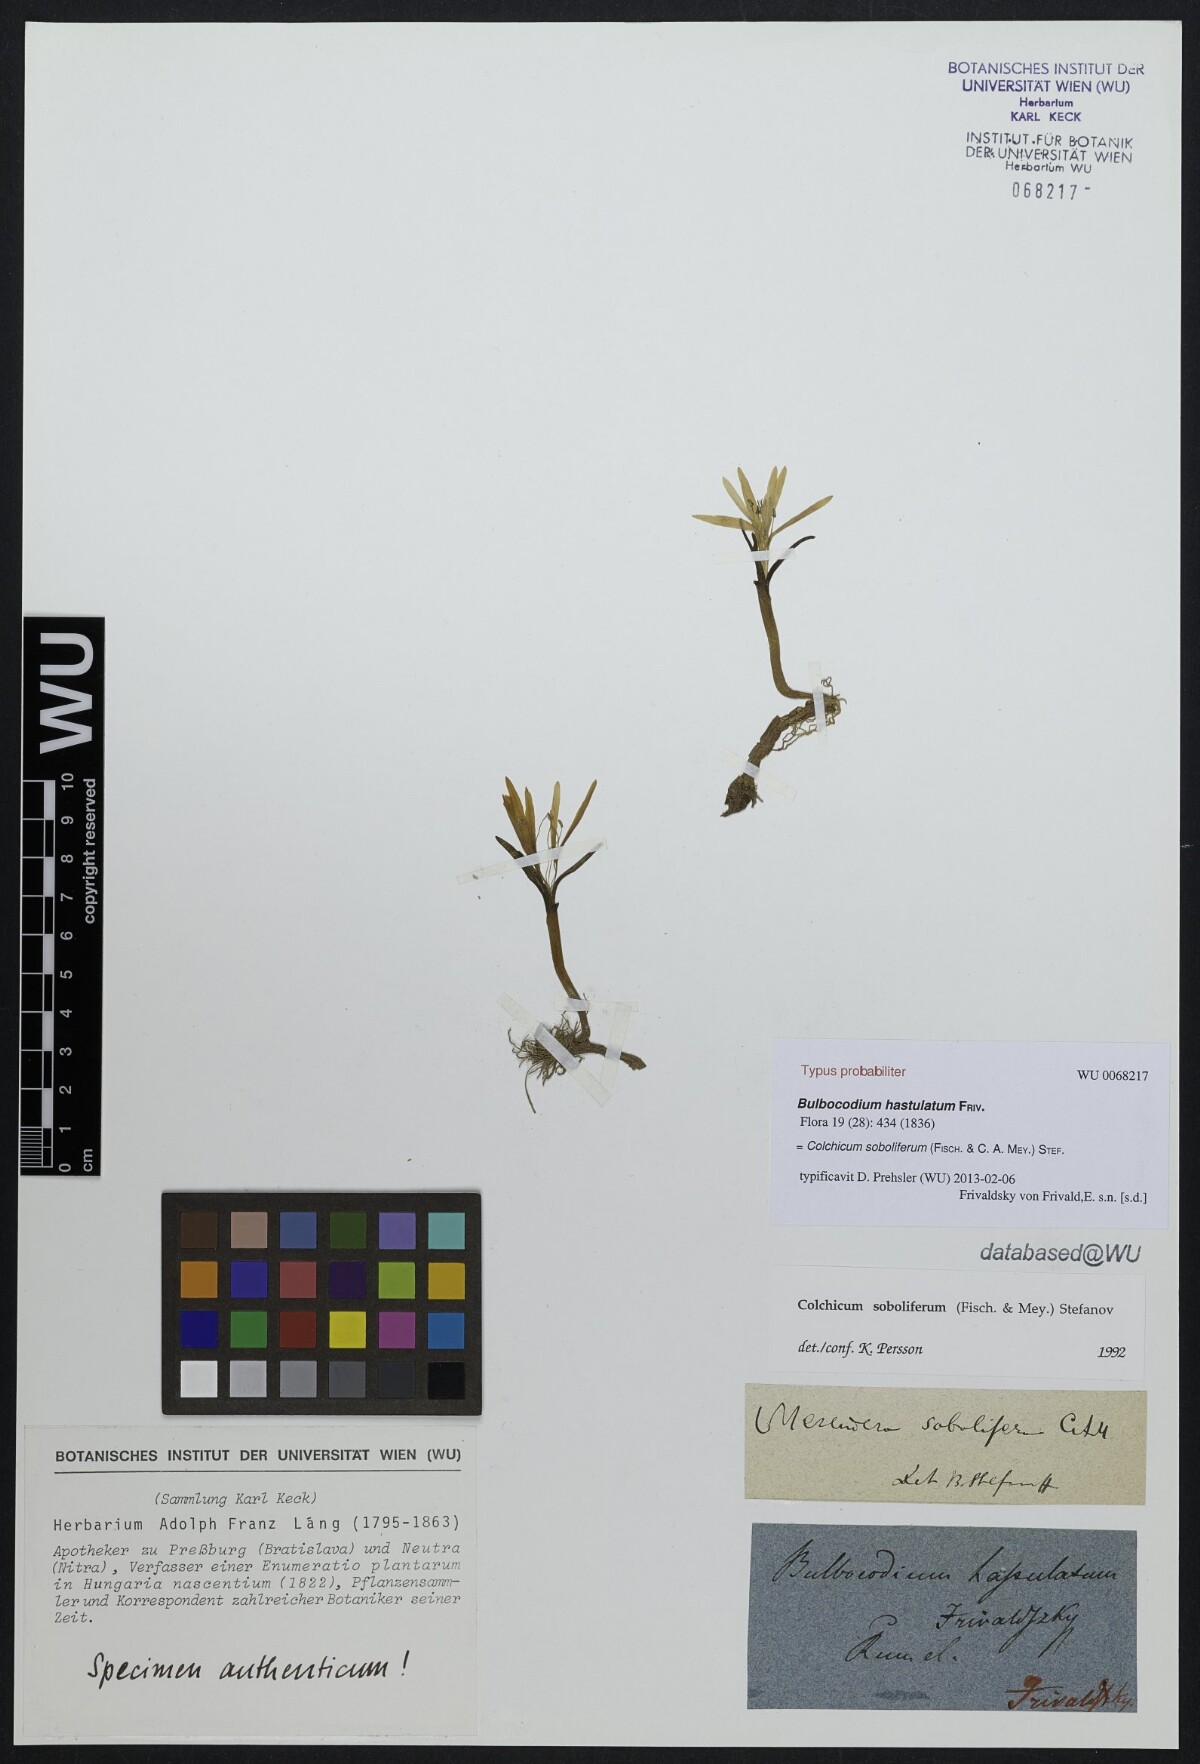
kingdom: Plantae
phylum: Tracheophyta
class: Liliopsida
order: Liliales
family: Colchicaceae
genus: Colchicum
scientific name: Colchicum soboliferum
